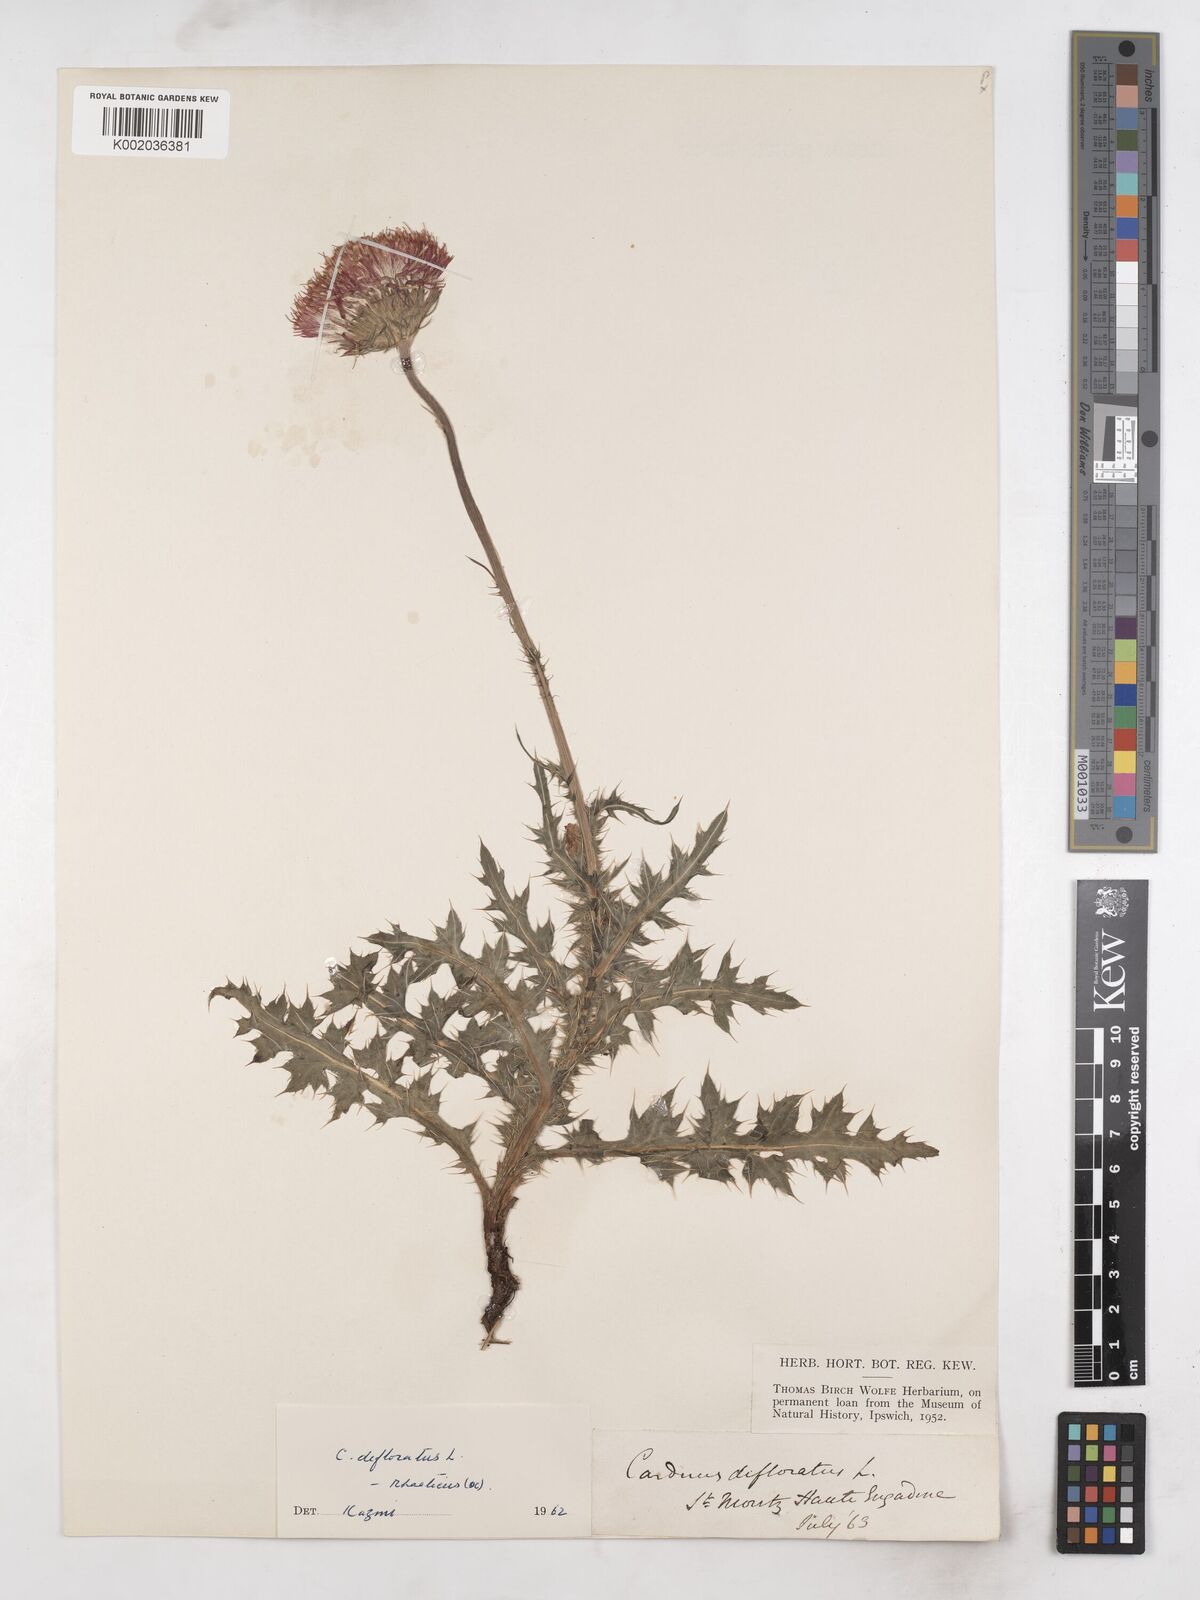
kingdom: Plantae
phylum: Tracheophyta
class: Magnoliopsida
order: Asterales
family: Asteraceae
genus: Carduus
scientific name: Carduus defloratus
